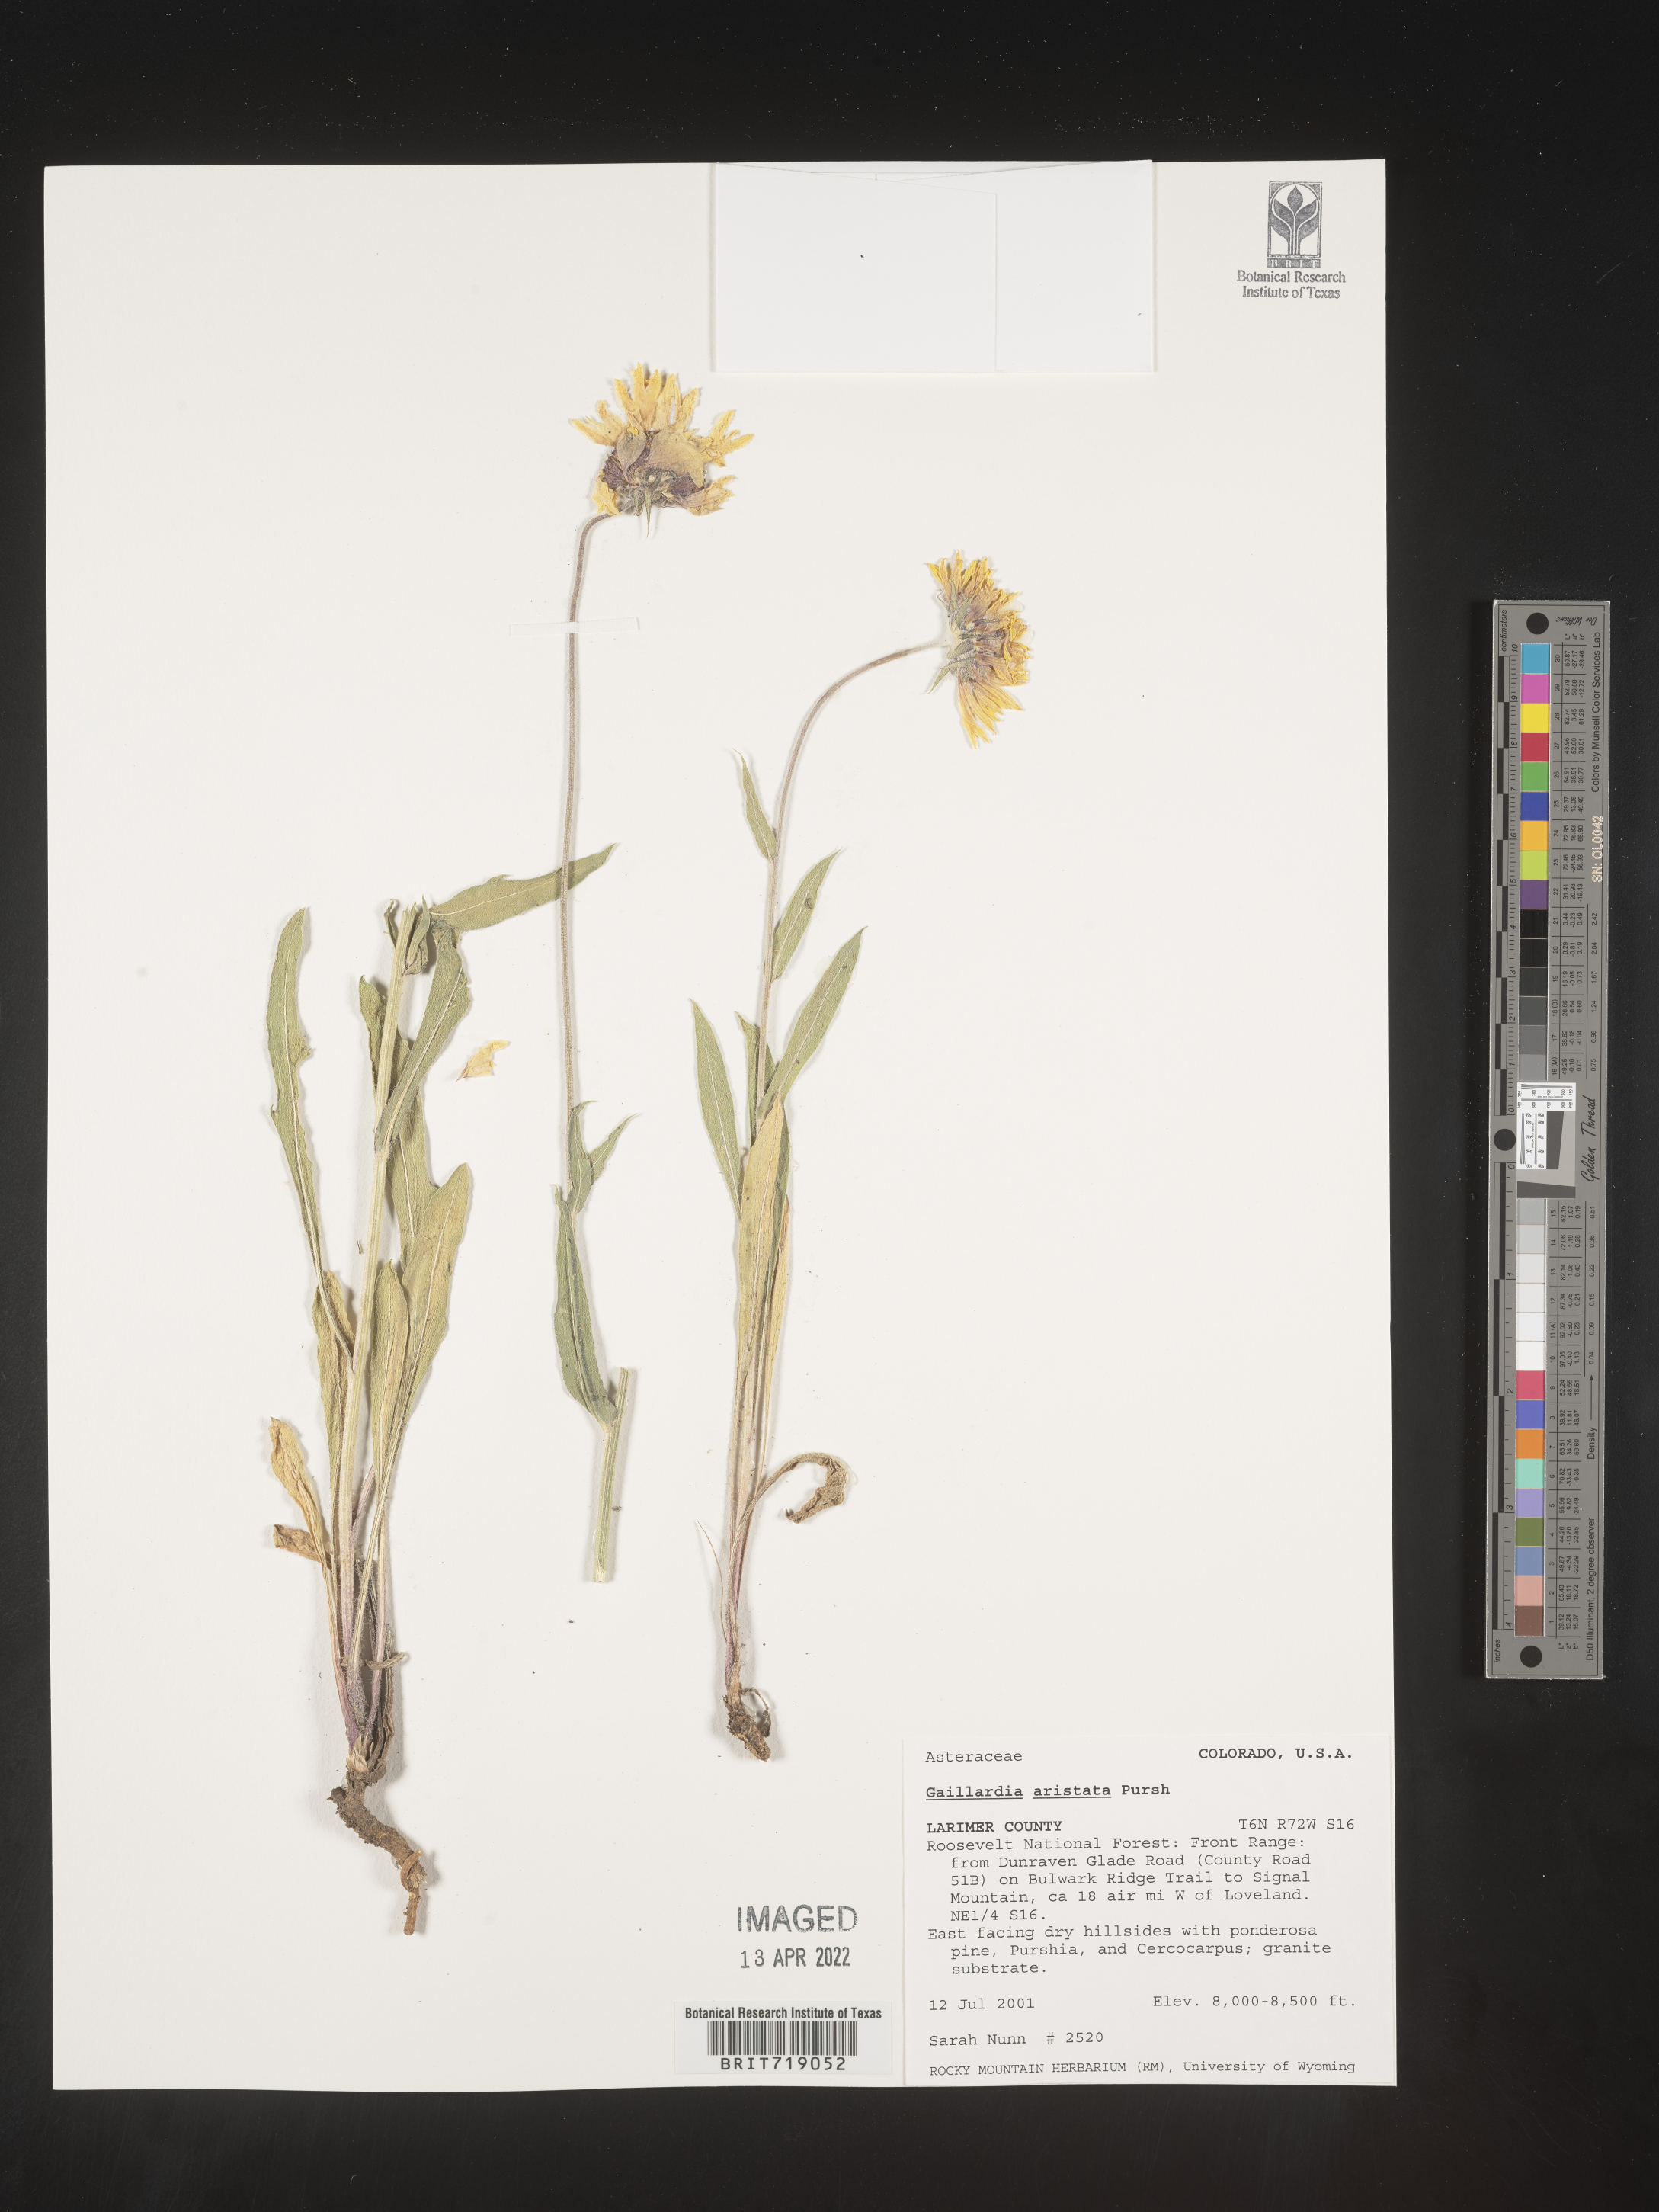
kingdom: Plantae
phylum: Tracheophyta
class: Magnoliopsida
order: Asterales
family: Asteraceae
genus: Gaillardia
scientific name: Gaillardia aristata
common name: Blanket-flower
